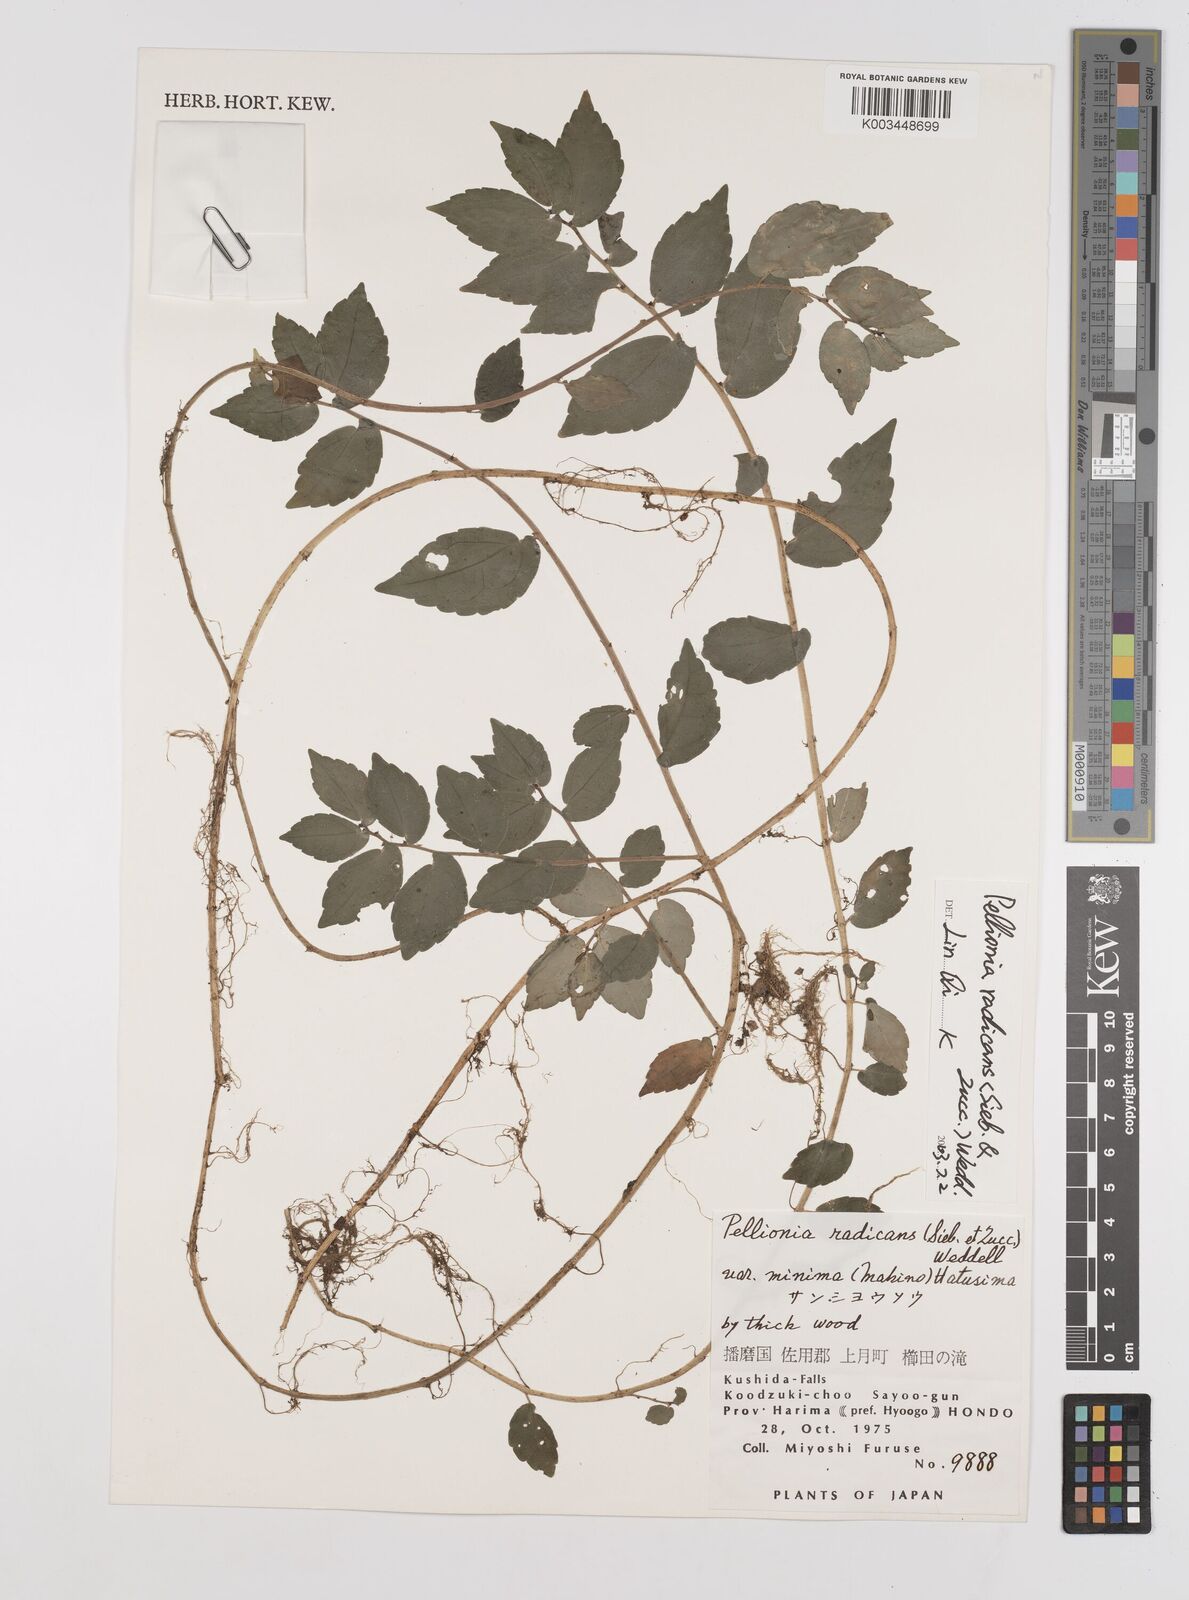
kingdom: Plantae
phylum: Tracheophyta
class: Magnoliopsida
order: Rosales
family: Urticaceae
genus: Elatostema
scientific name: Elatostema radicans
